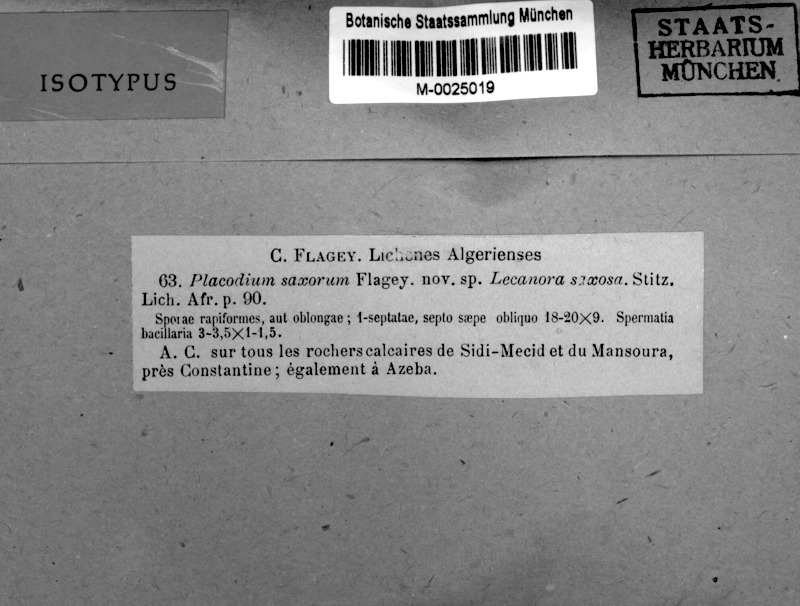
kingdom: Fungi
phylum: Ascomycota
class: Lecanoromycetes
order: Teloschistales
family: Teloschistaceae
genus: Caloplaca
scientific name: Caloplaca
